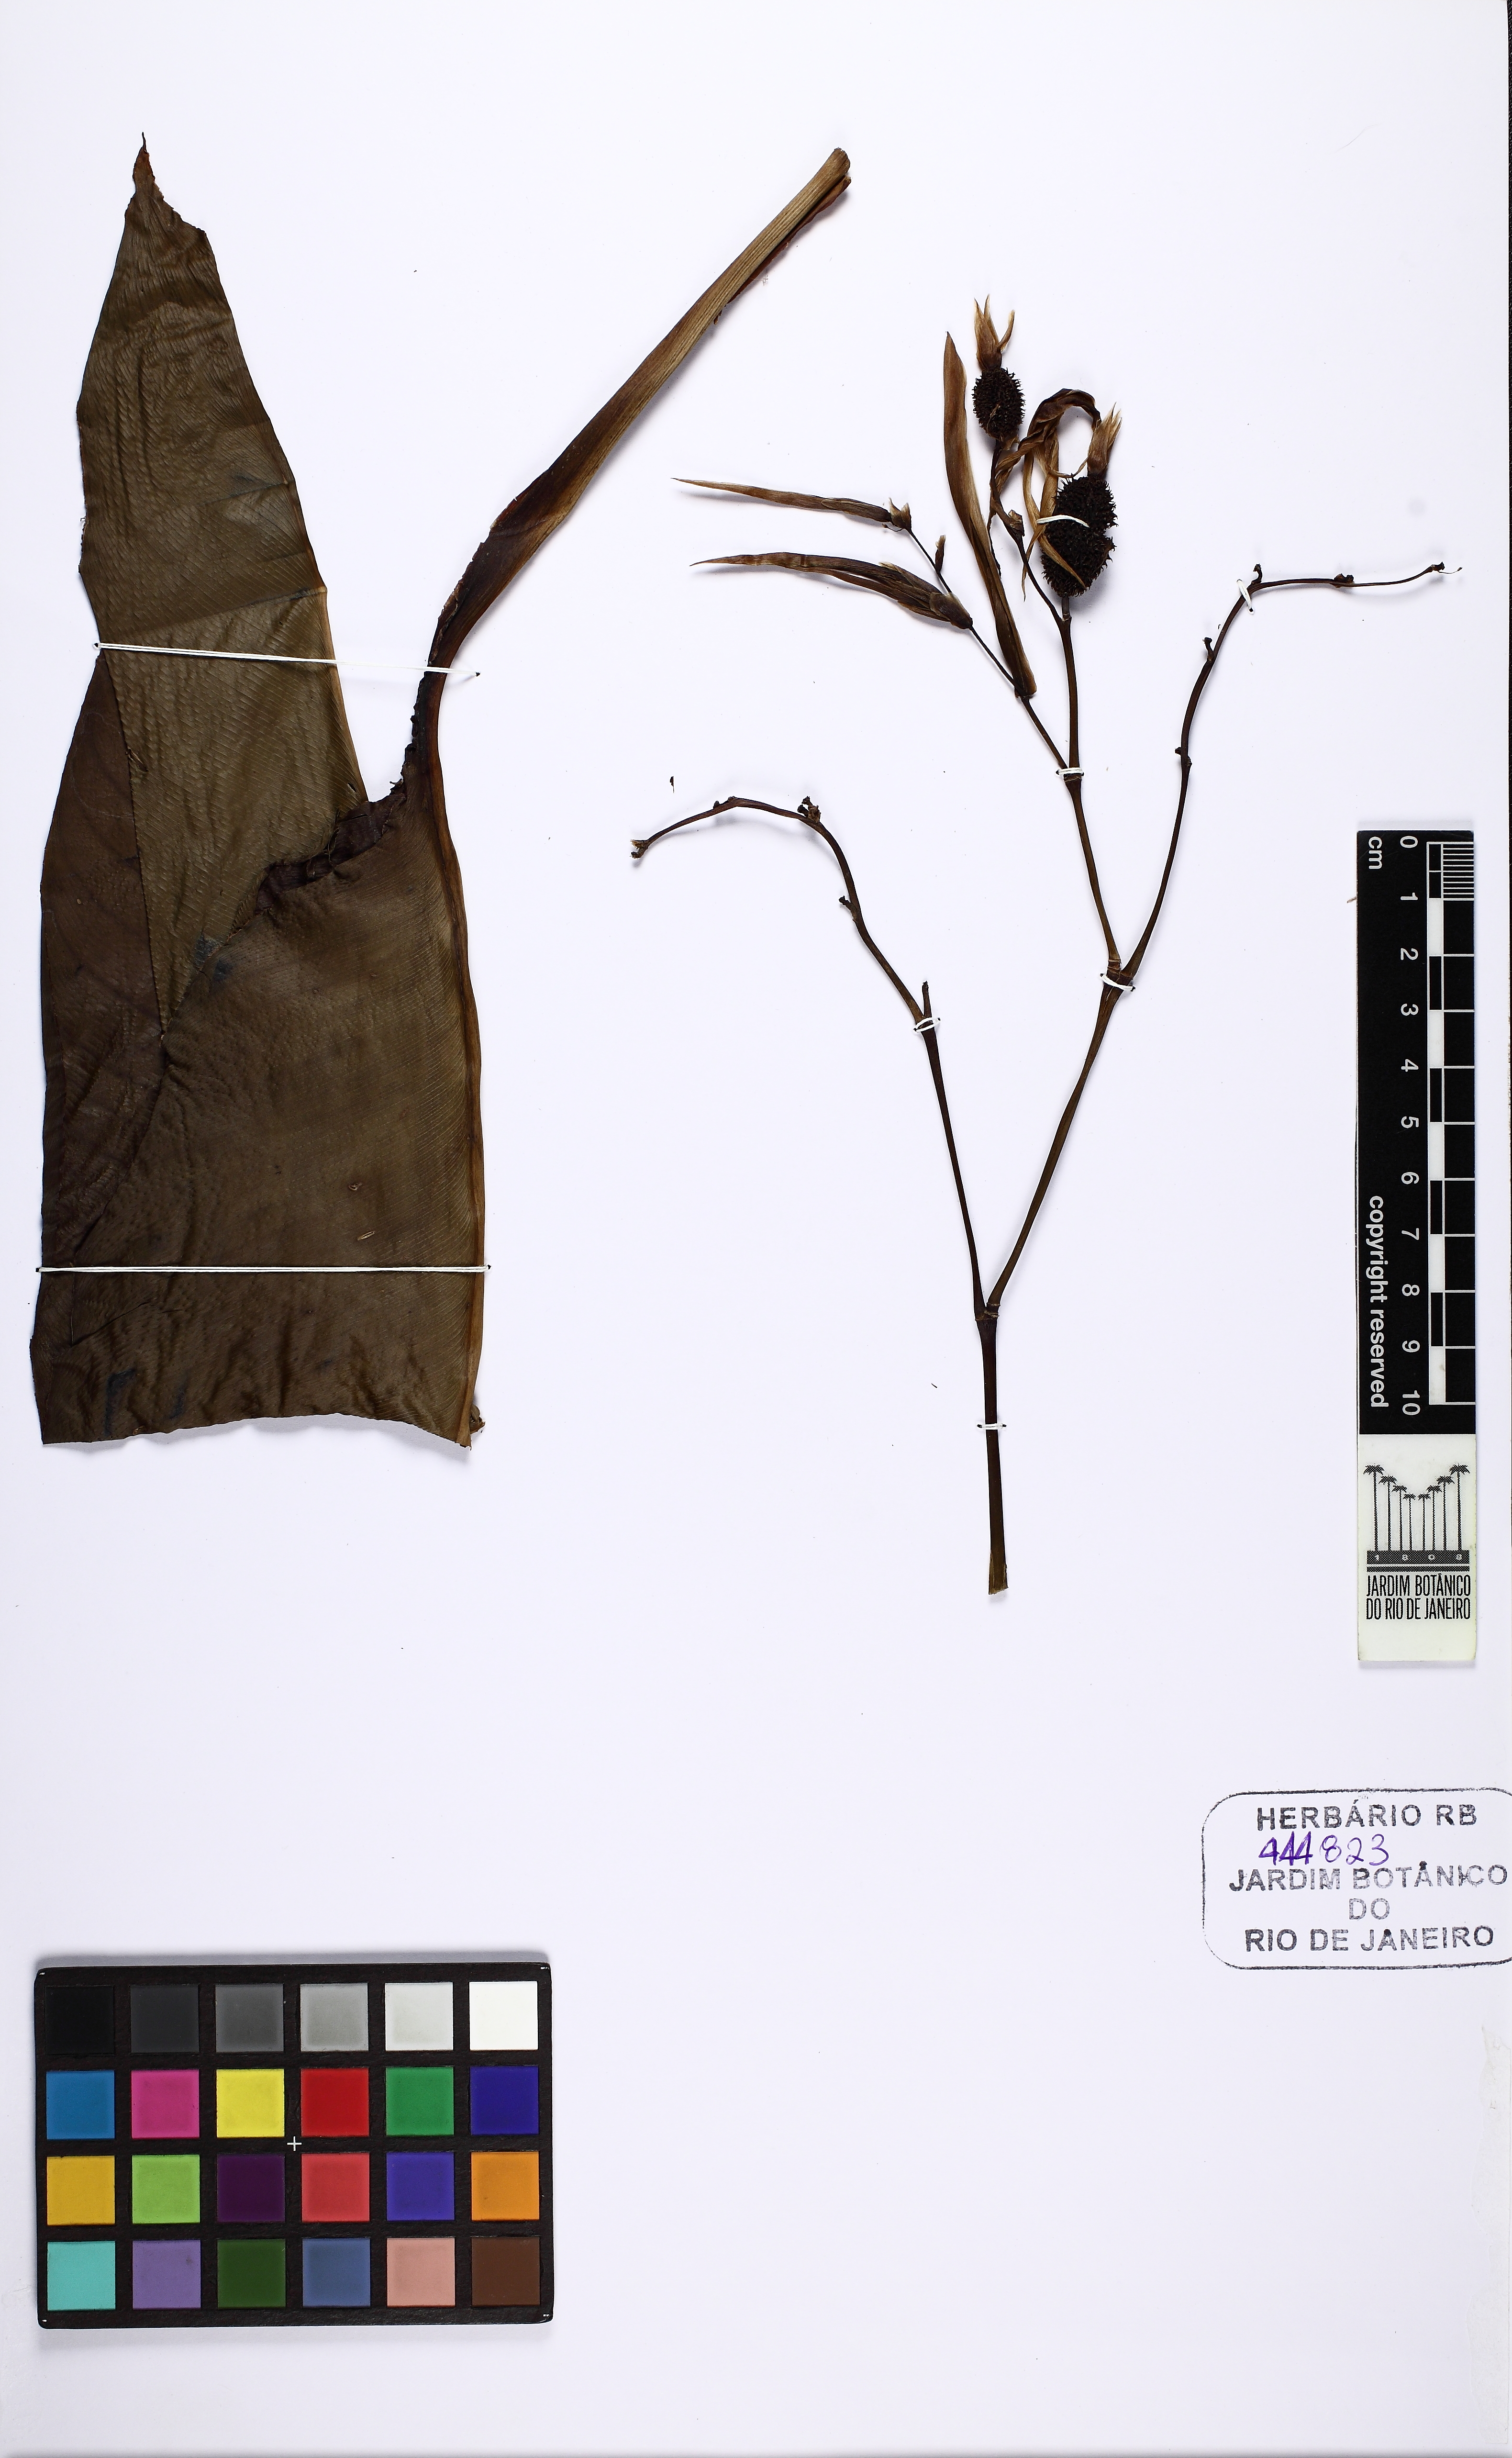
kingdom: Plantae
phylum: Tracheophyta
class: Liliopsida
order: Zingiberales
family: Cannaceae
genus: Canna
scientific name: Canna paniculata
